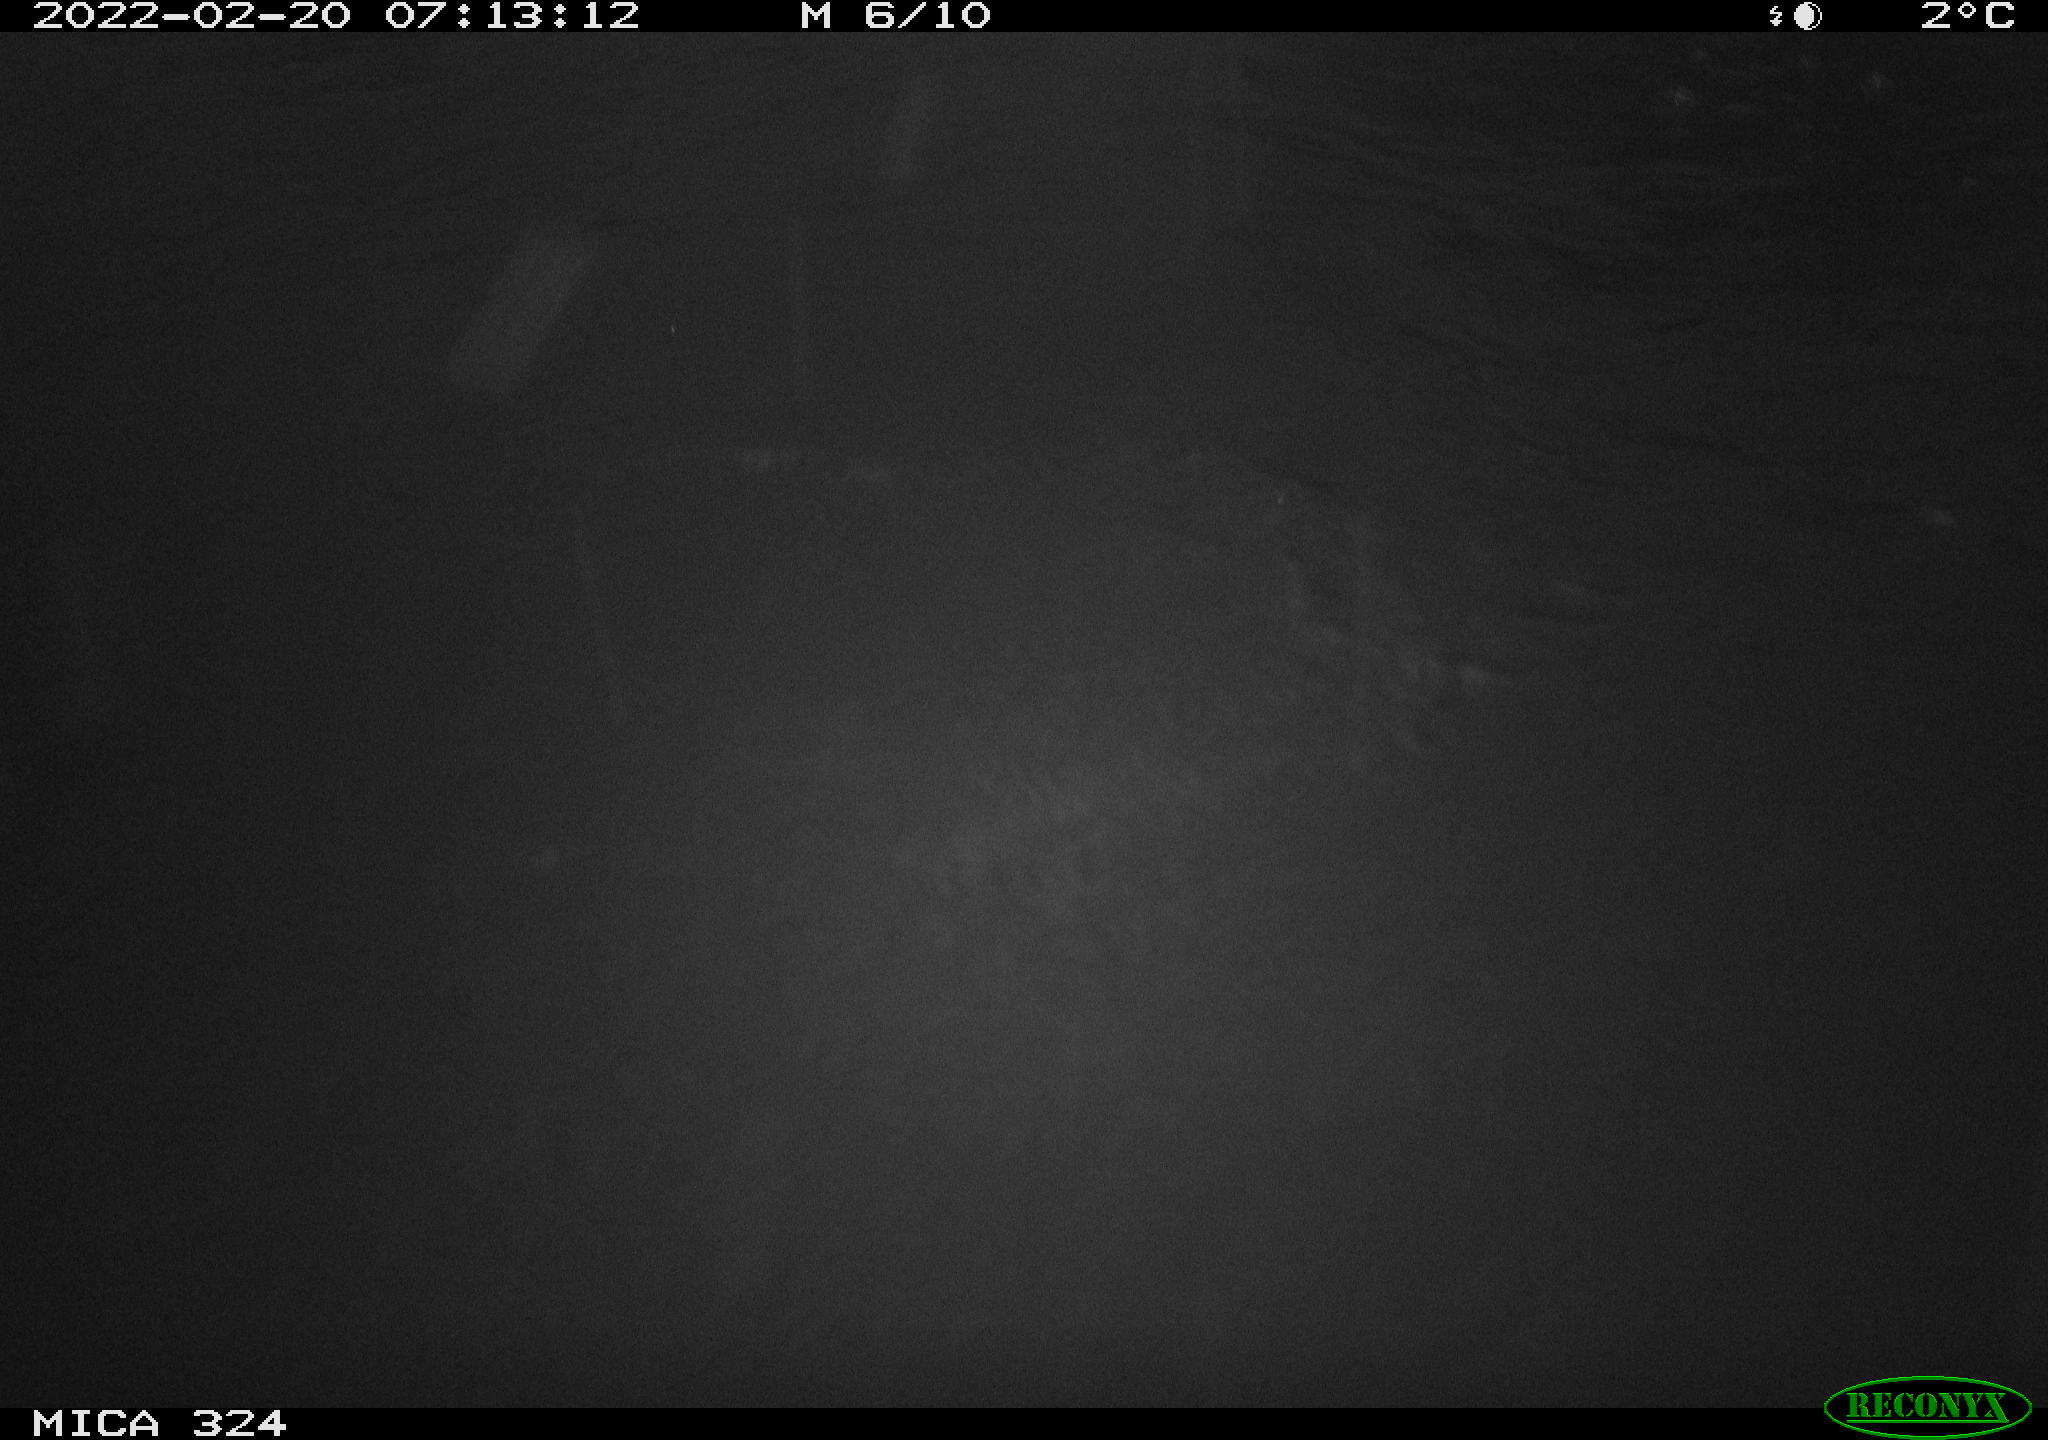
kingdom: Animalia
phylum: Chordata
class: Mammalia
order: Rodentia
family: Cricetidae
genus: Ondatra
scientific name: Ondatra zibethicus
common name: Muskrat
